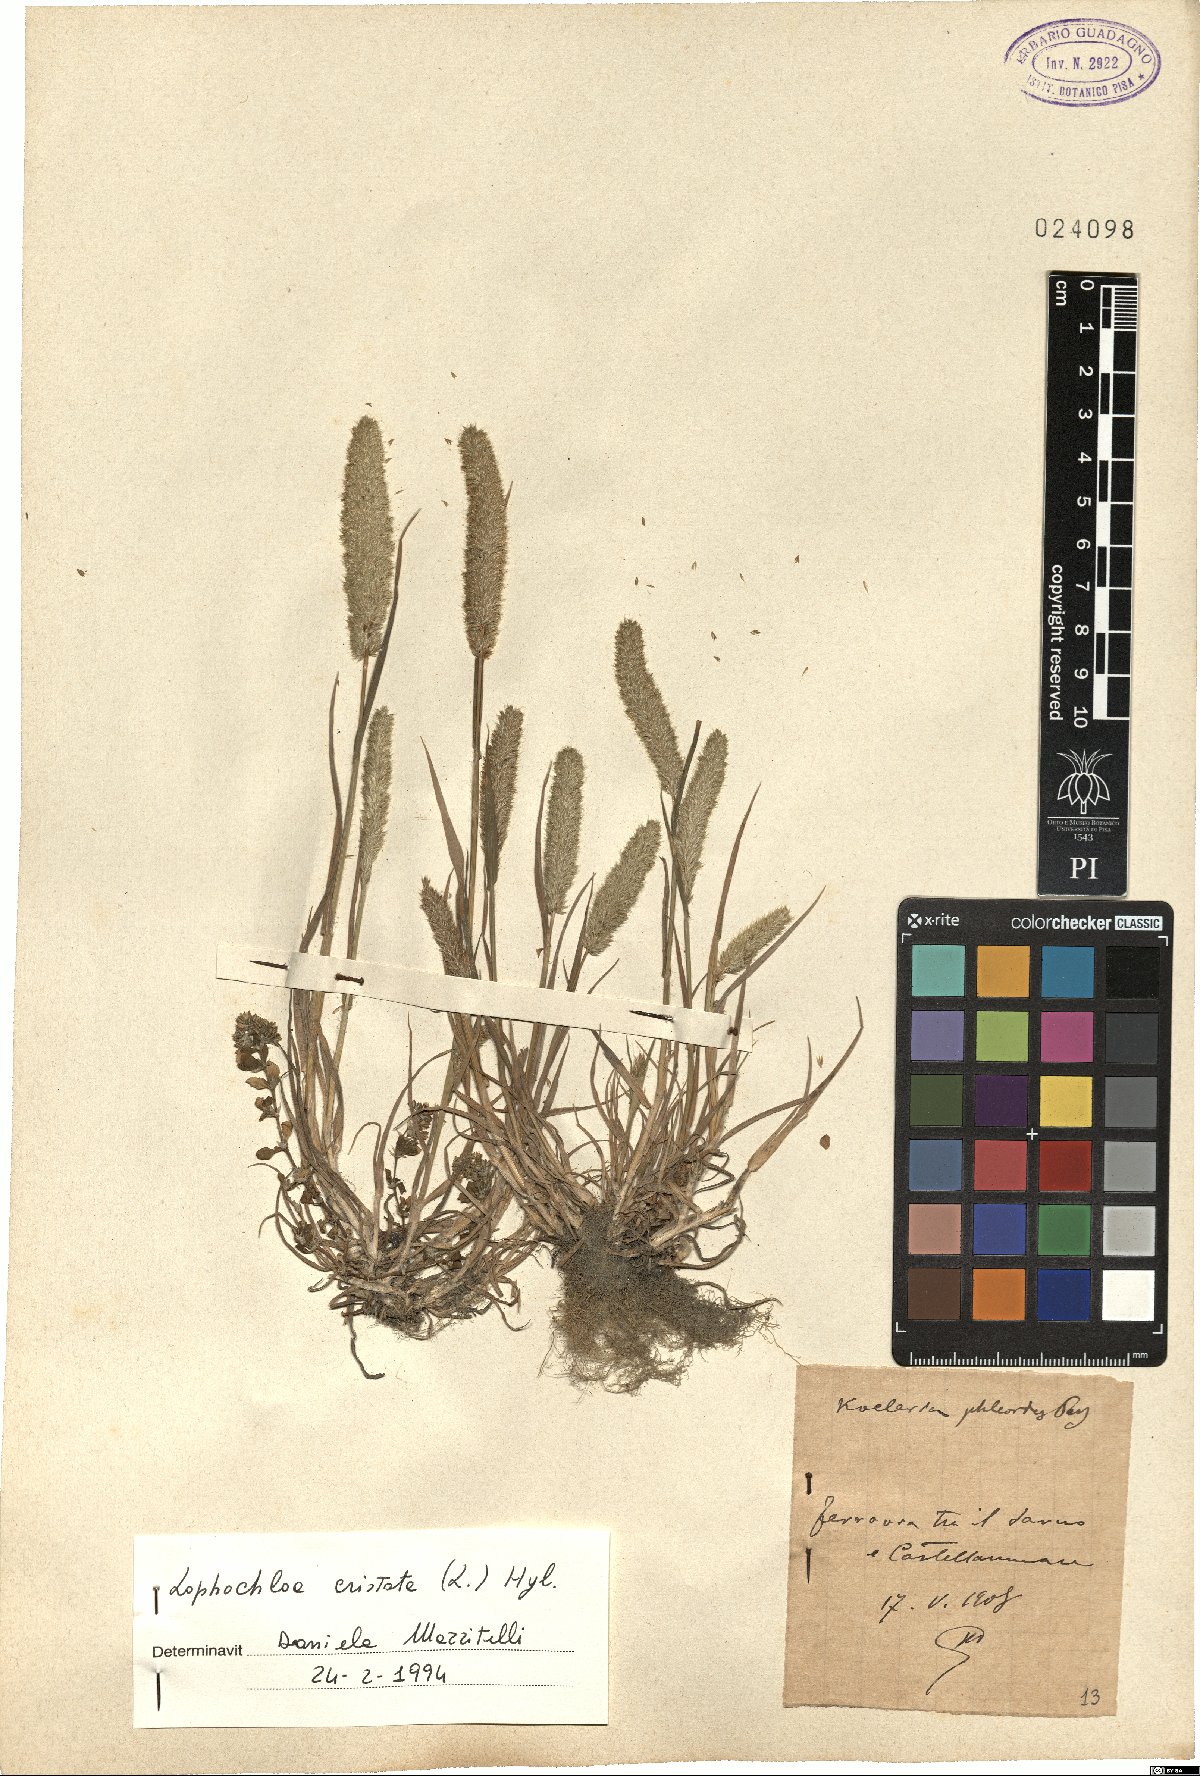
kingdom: Plantae
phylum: Tracheophyta
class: Liliopsida
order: Poales
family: Poaceae
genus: Rostraria
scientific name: Rostraria cristata
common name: Mediterranean hair-grass
